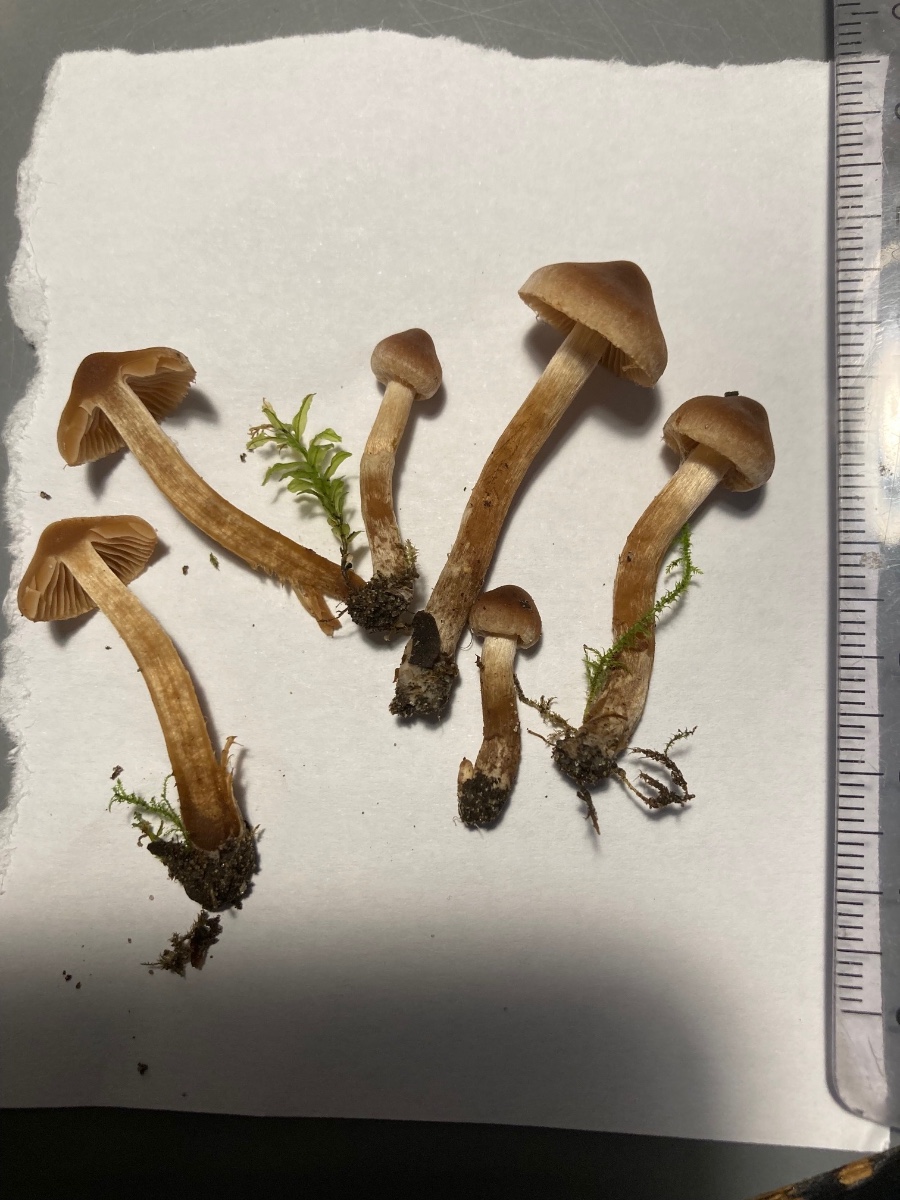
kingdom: Fungi
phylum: Basidiomycota
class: Agaricomycetes
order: Agaricales
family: Cortinariaceae
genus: Cortinarius
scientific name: Cortinarius umbrinolutescens
